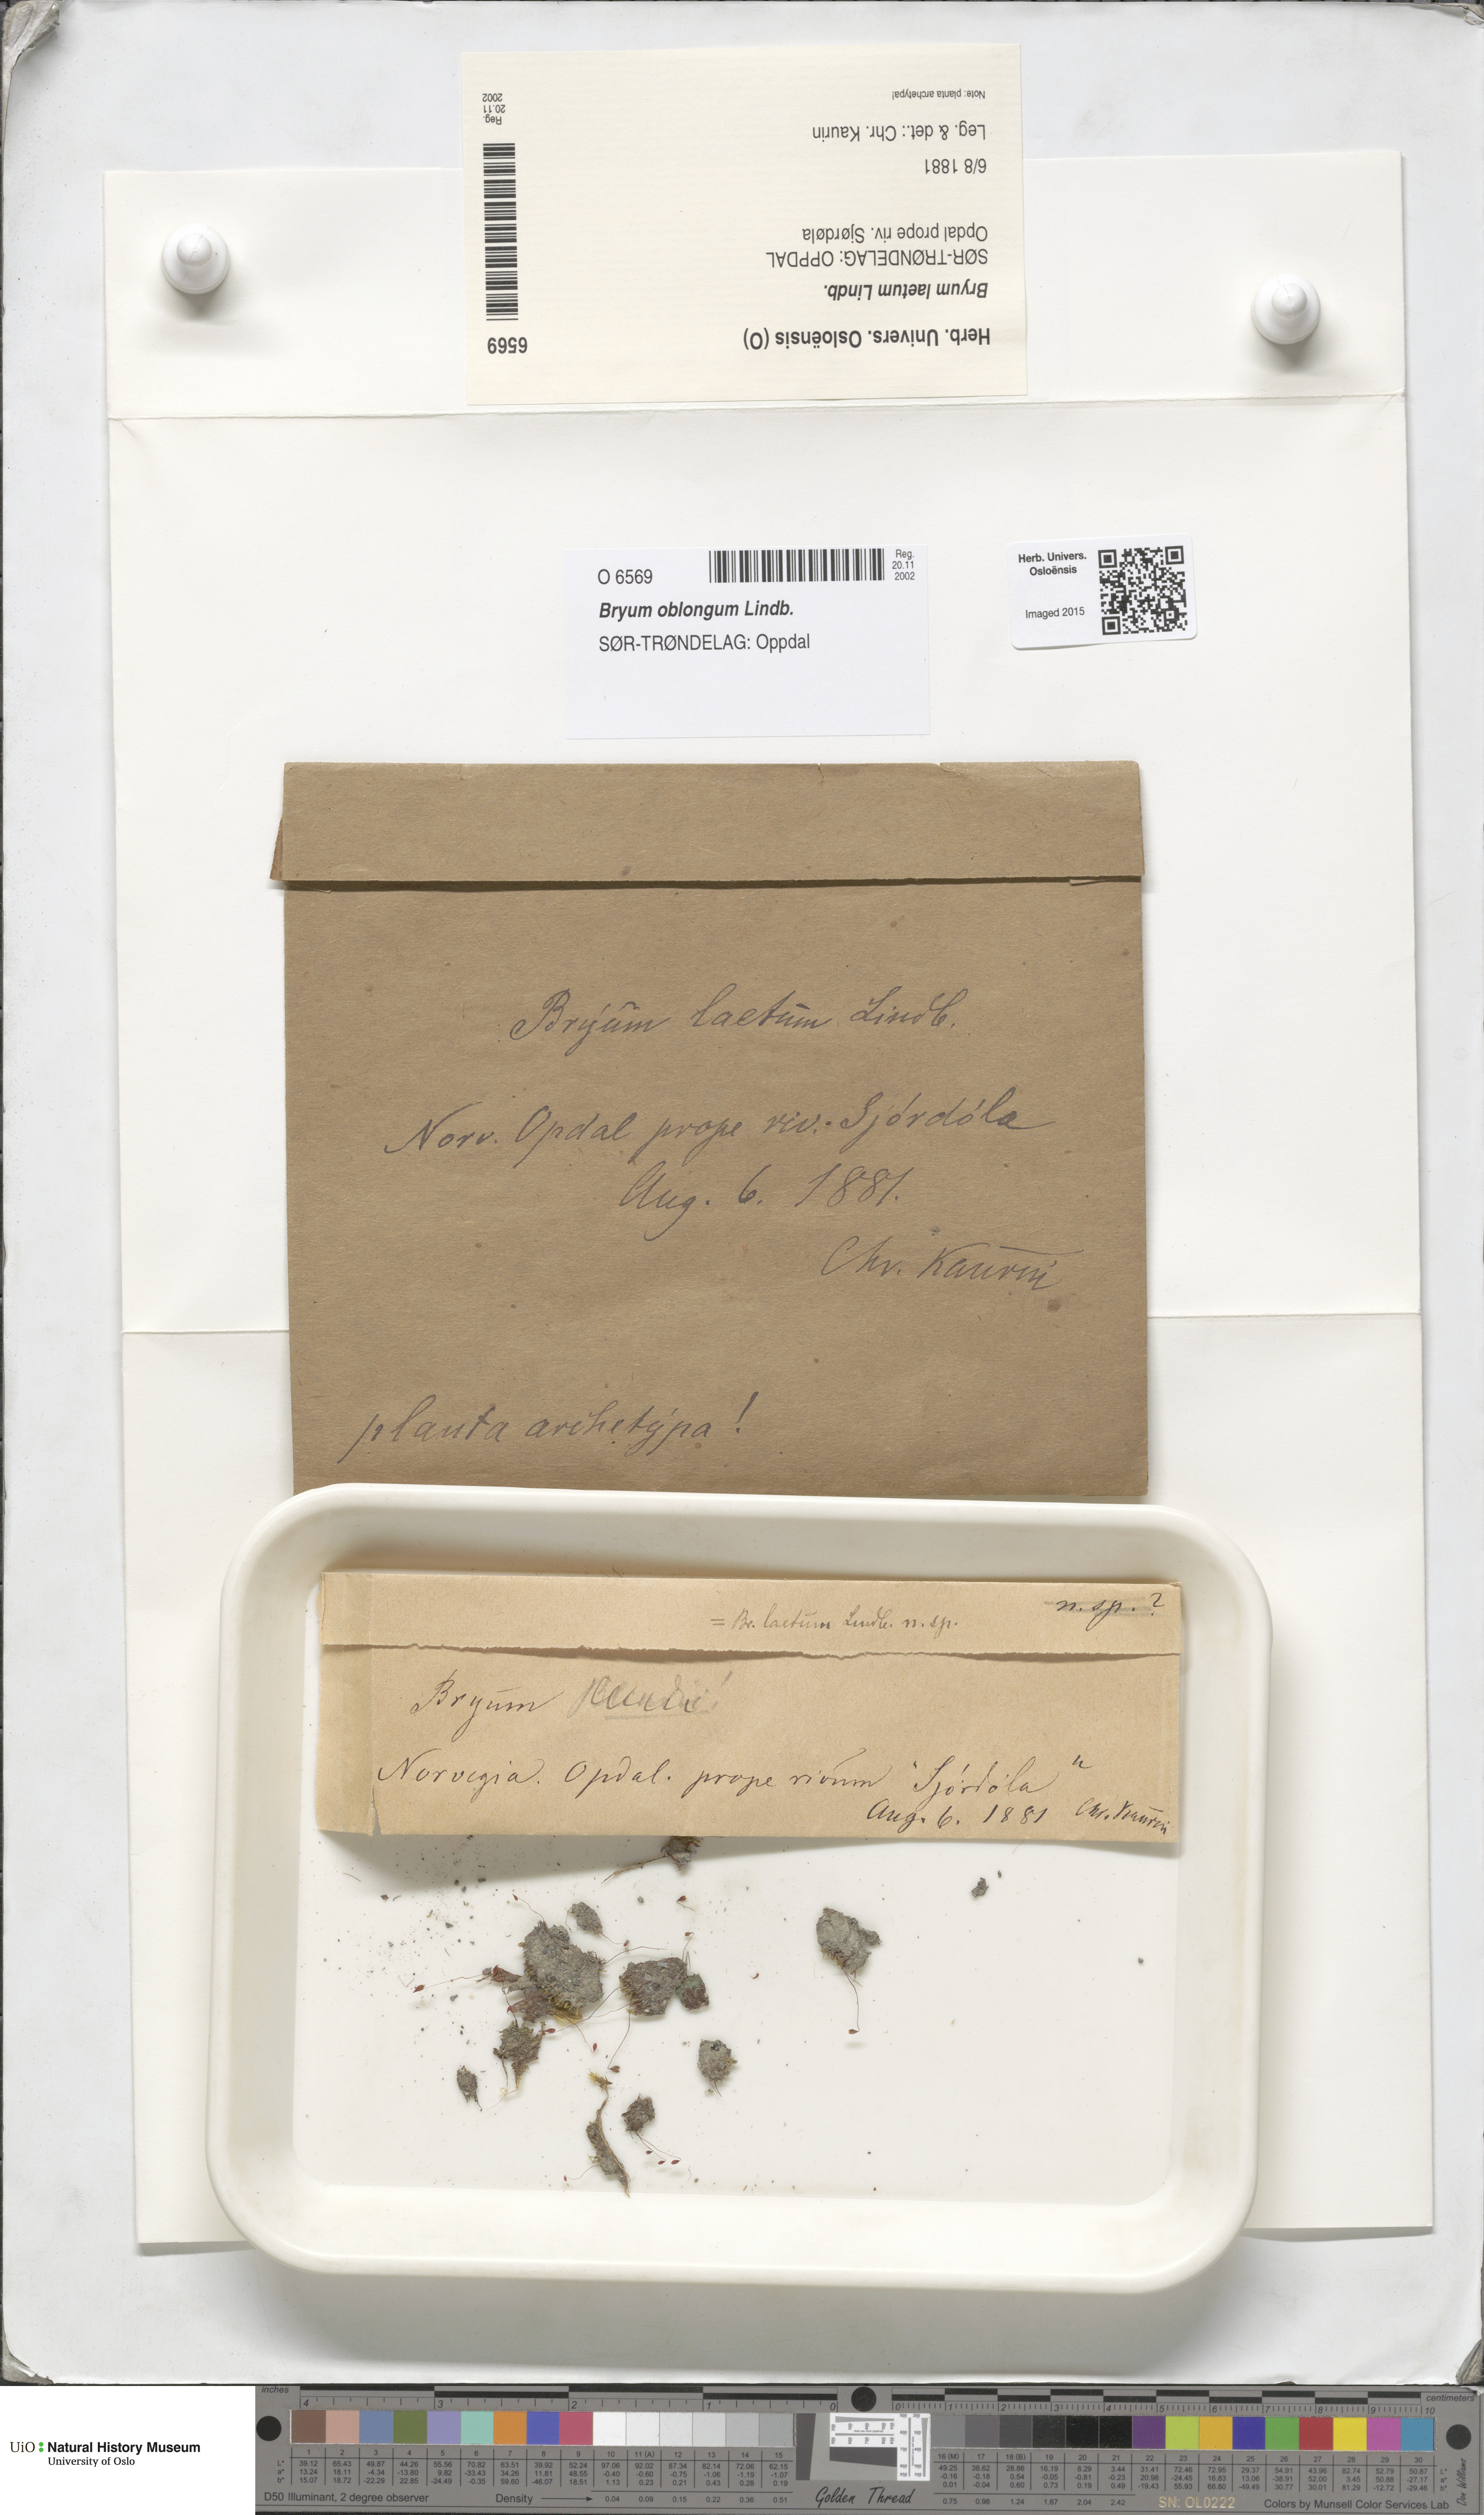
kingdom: Plantae
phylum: Bryophyta
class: Bryopsida
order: Bryales
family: Bryaceae
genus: Bryum
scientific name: Bryum oblongum
